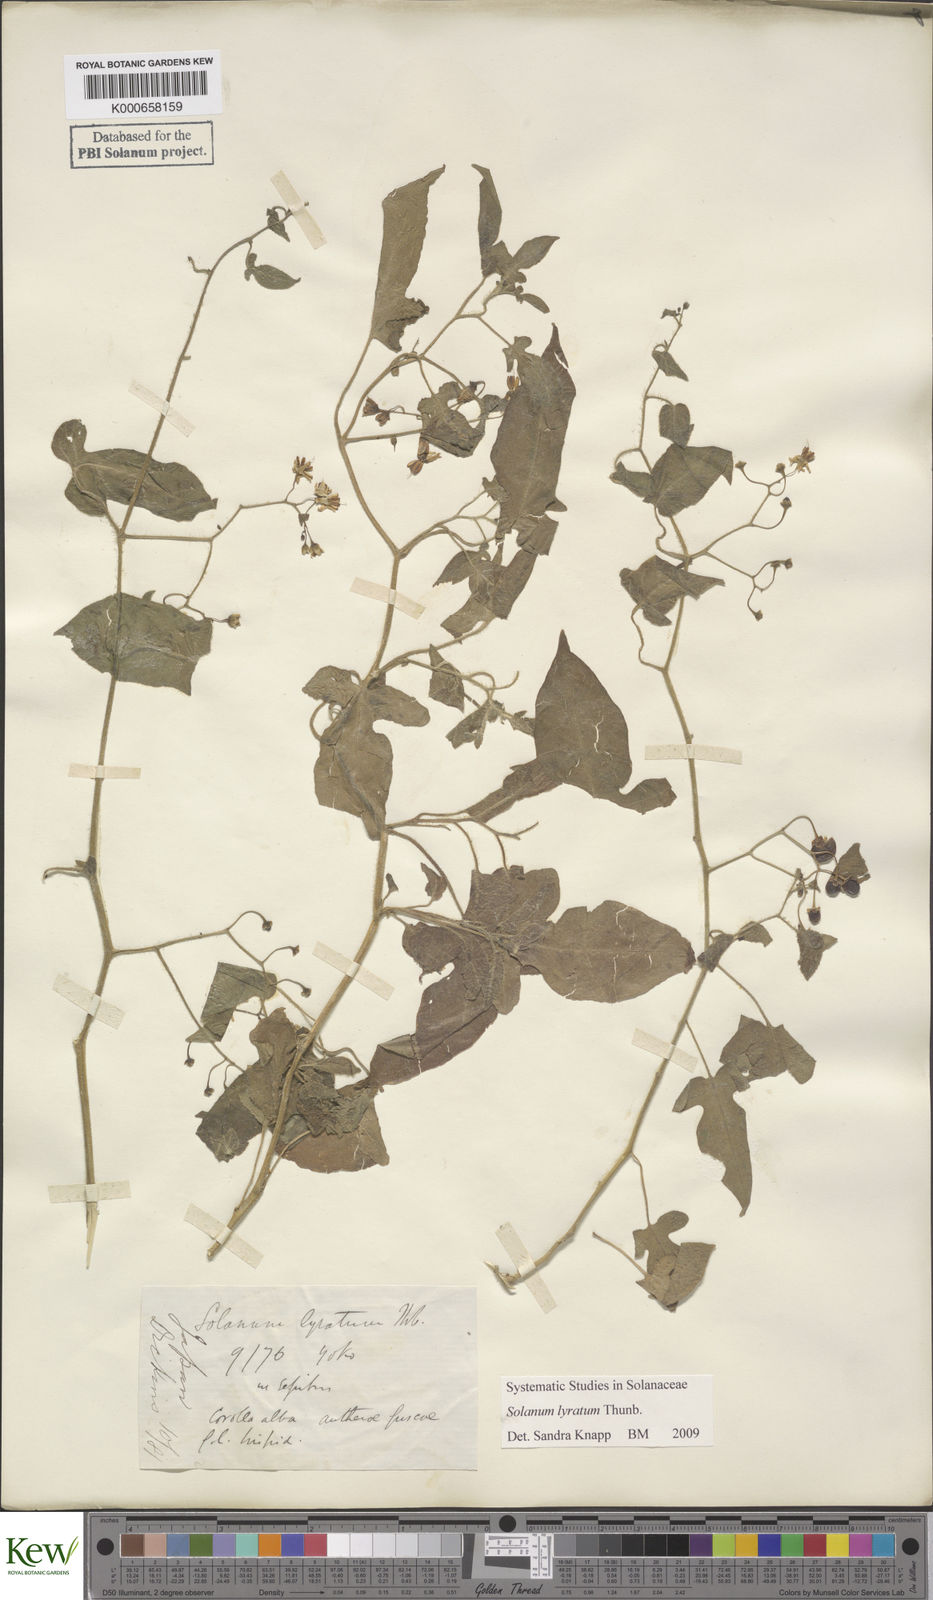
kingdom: Plantae
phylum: Tracheophyta
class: Magnoliopsida
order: Solanales
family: Solanaceae
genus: Solanum
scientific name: Solanum lyratum
